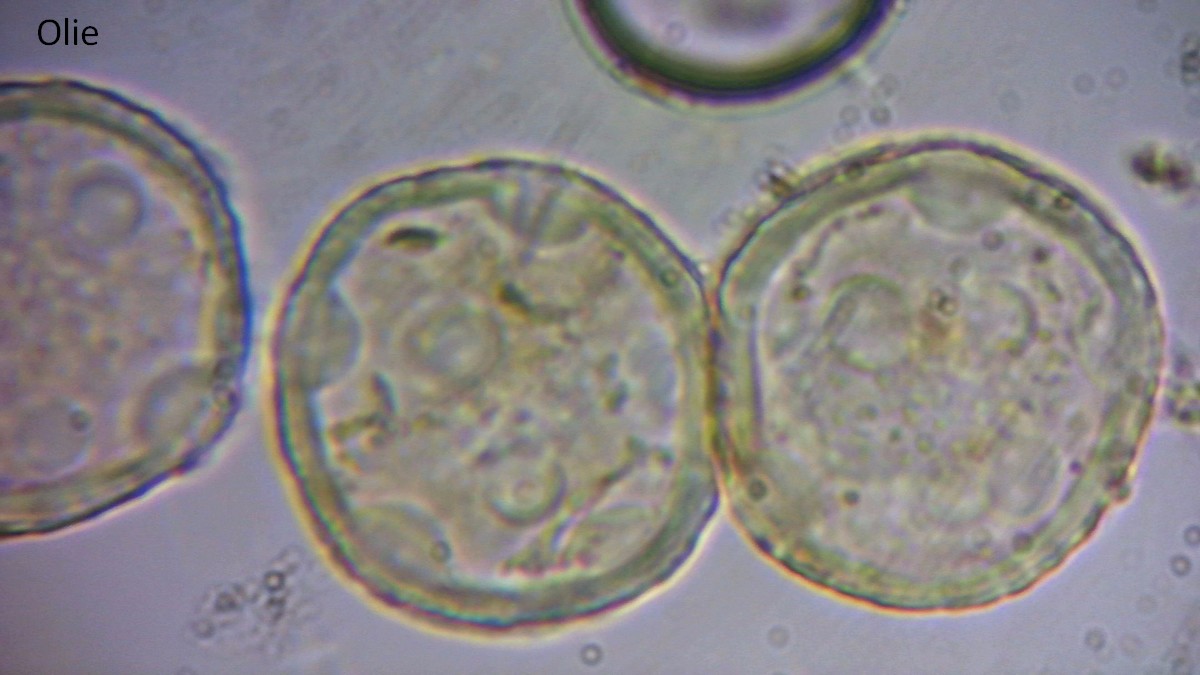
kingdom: Fungi
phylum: Basidiomycota
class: Pucciniomycetes
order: Pucciniales
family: Phragmidiaceae
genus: Phragmidium
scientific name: Phragmidium
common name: flercellerust
